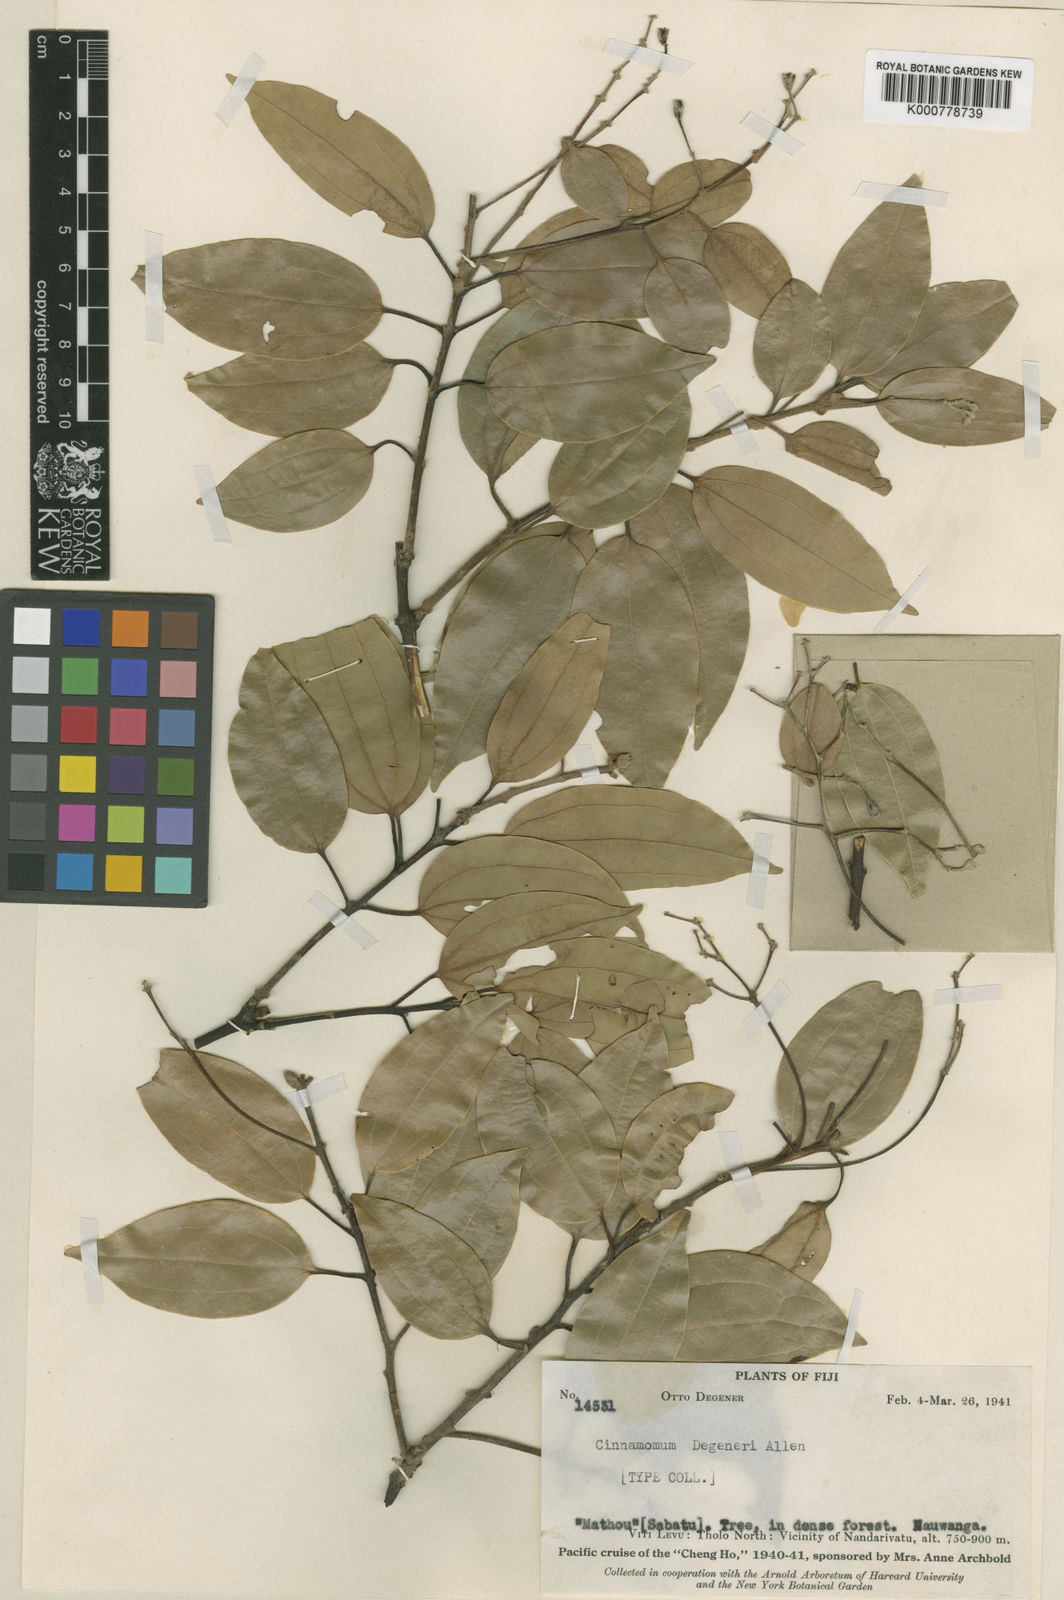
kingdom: Plantae
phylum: Tracheophyta
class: Magnoliopsida
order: Laurales
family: Lauraceae
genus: Cinnamomum
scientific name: Cinnamomum degeneri
